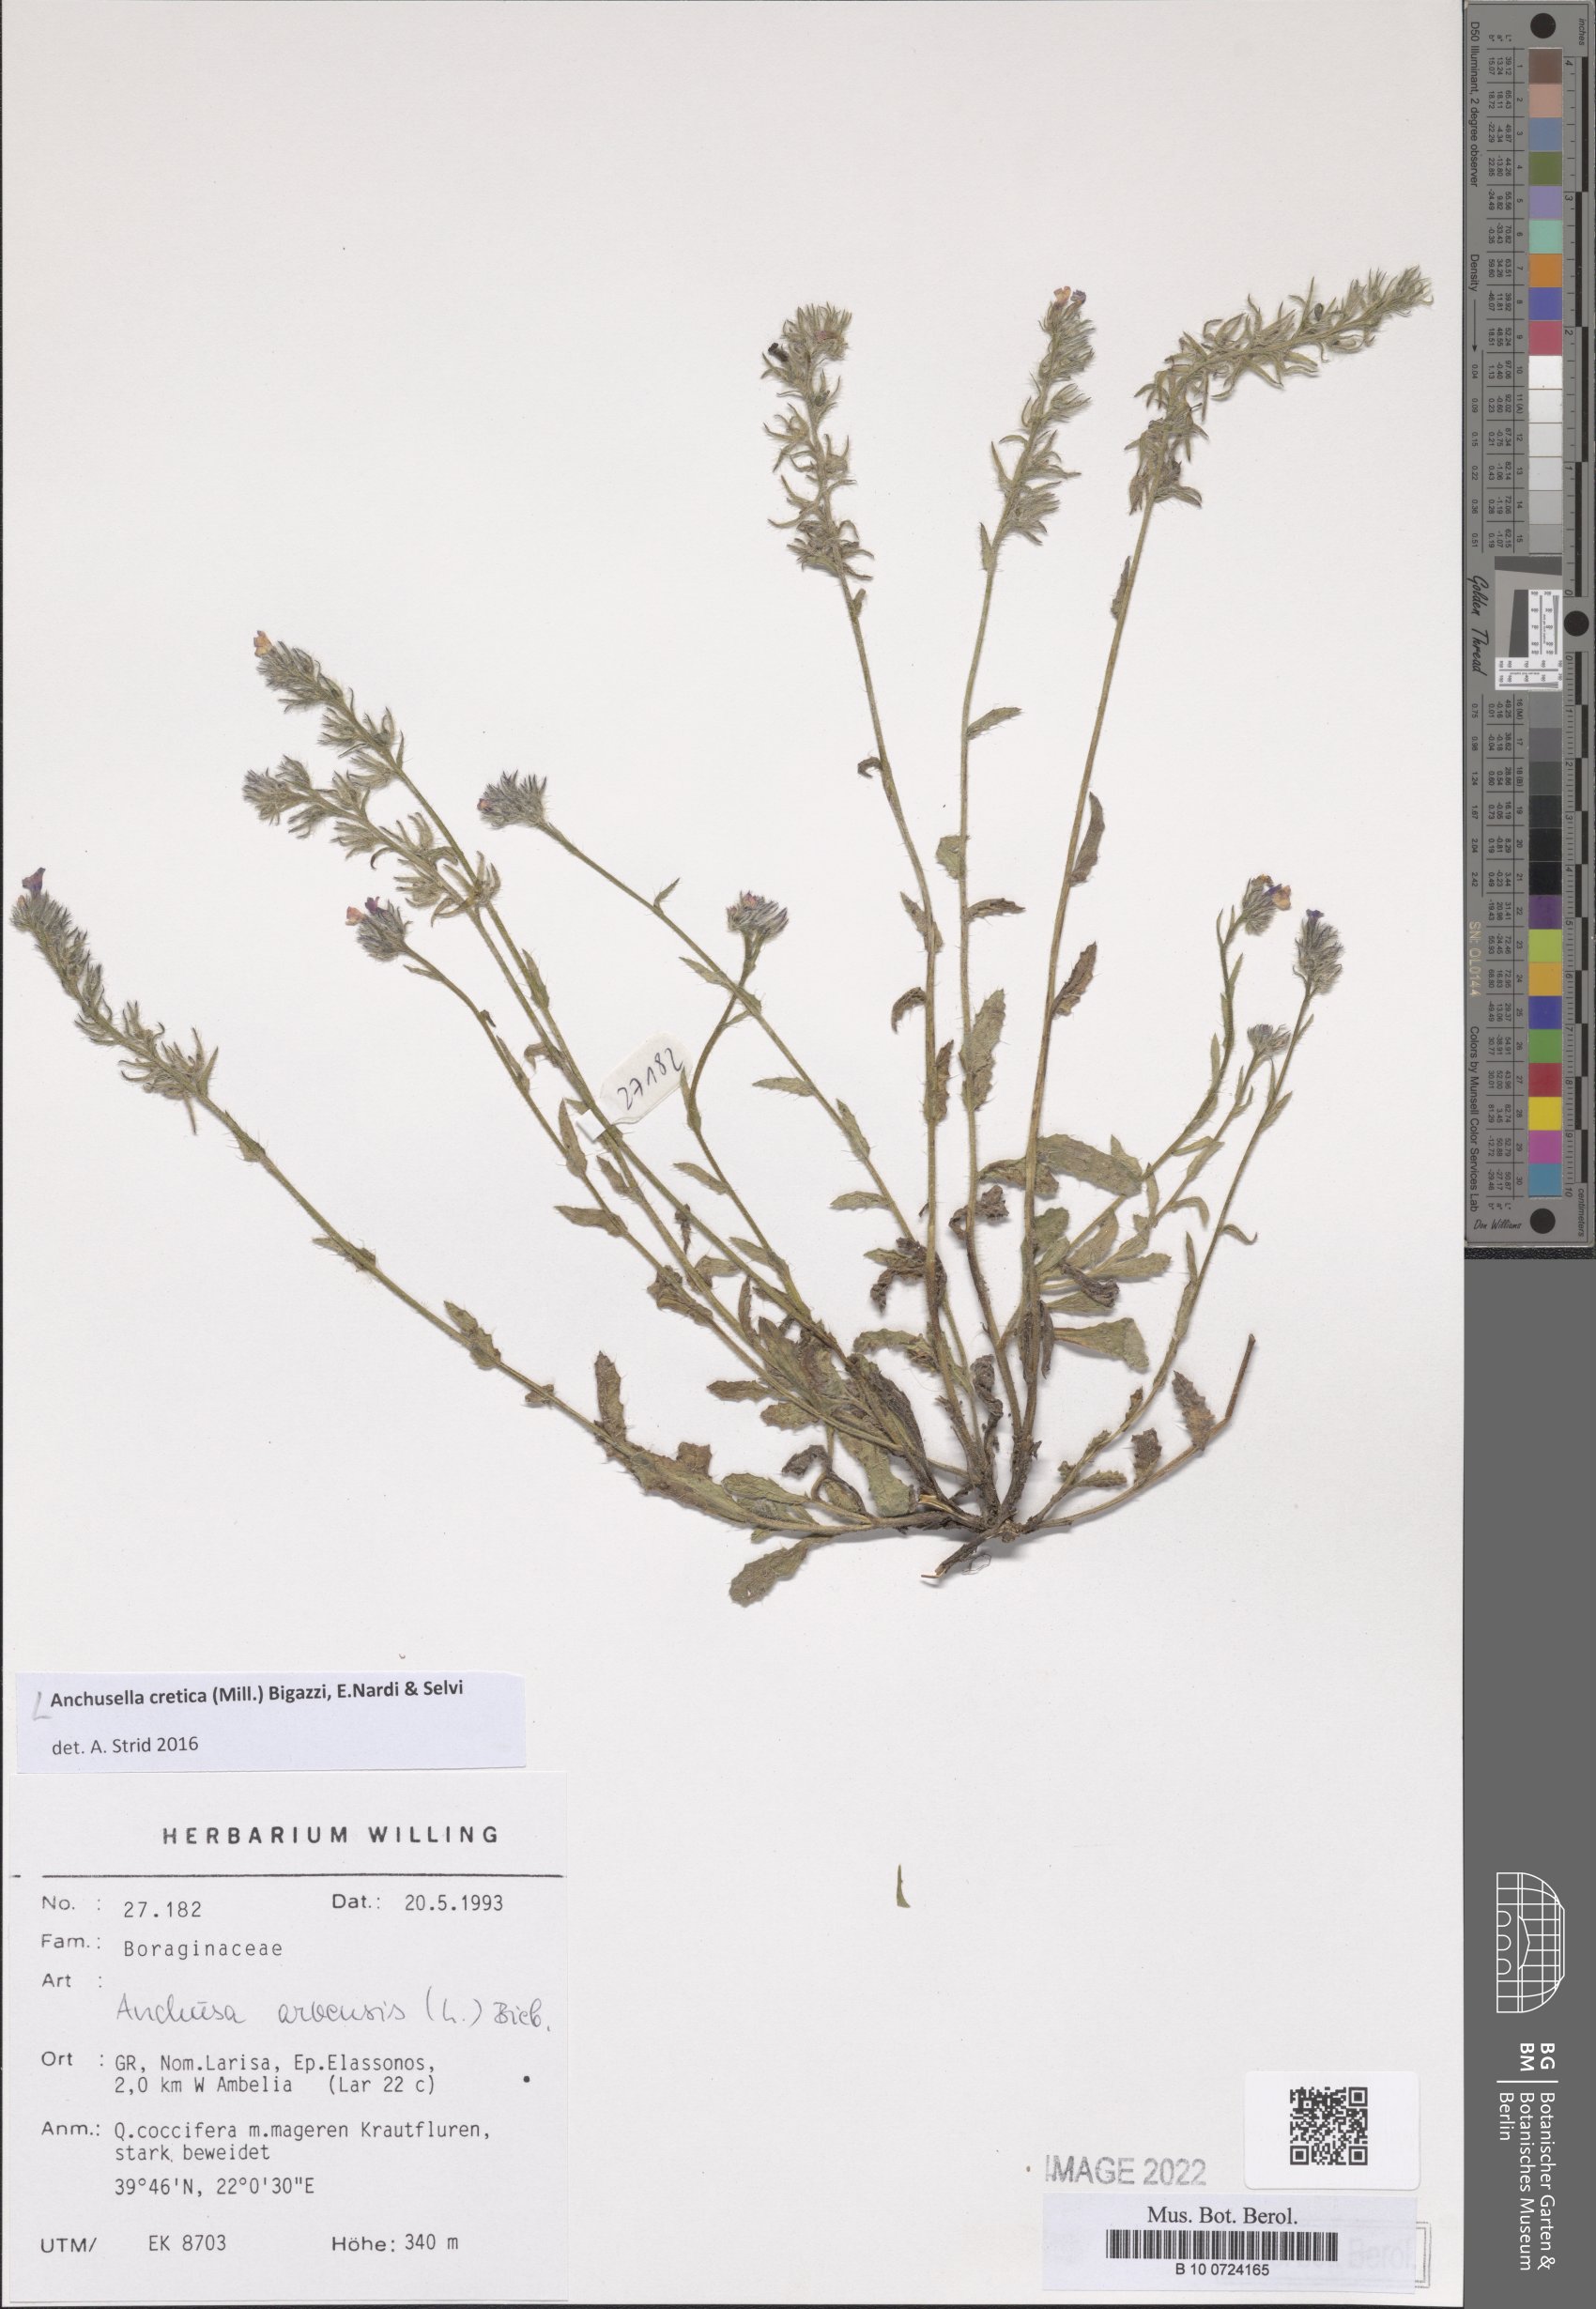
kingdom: Plantae
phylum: Tracheophyta
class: Magnoliopsida
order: Boraginales
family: Boraginaceae
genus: Anchusella
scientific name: Anchusella cretica
